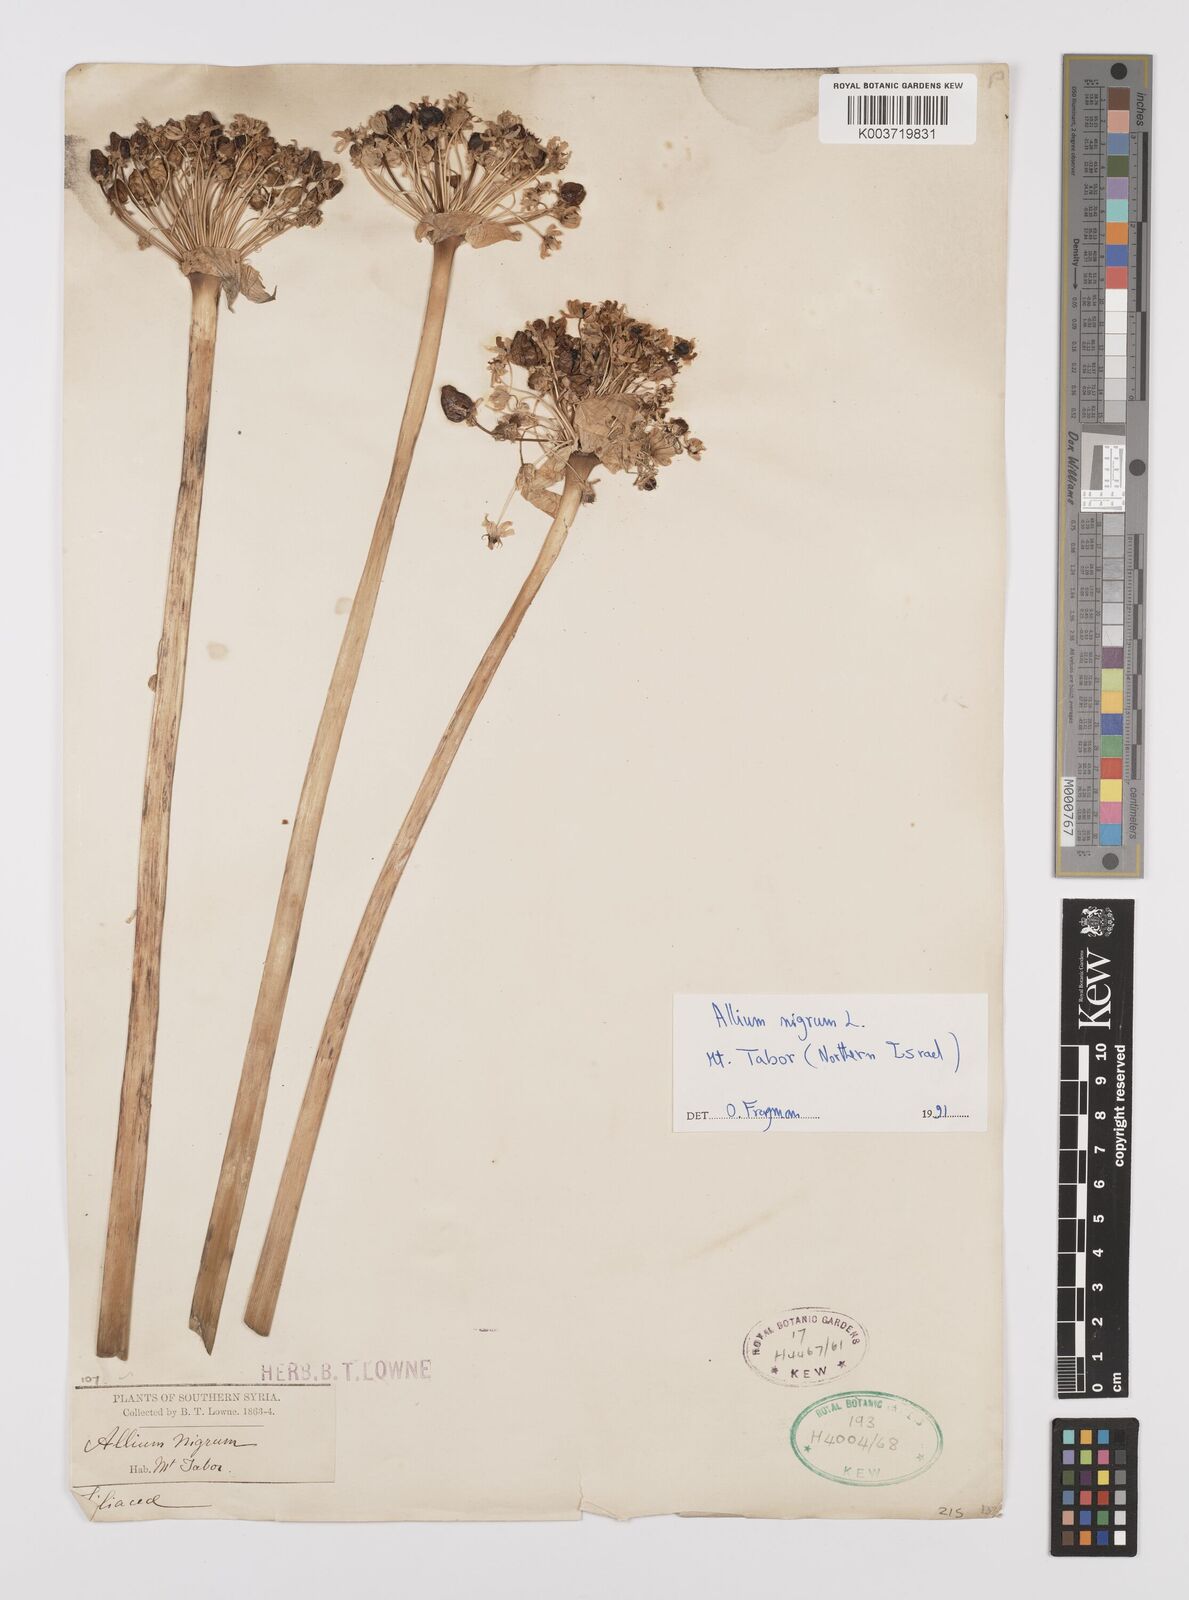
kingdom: Plantae
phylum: Tracheophyta
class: Liliopsida
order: Asparagales
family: Amaryllidaceae
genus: Allium
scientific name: Allium nigrum
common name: Black garlic
